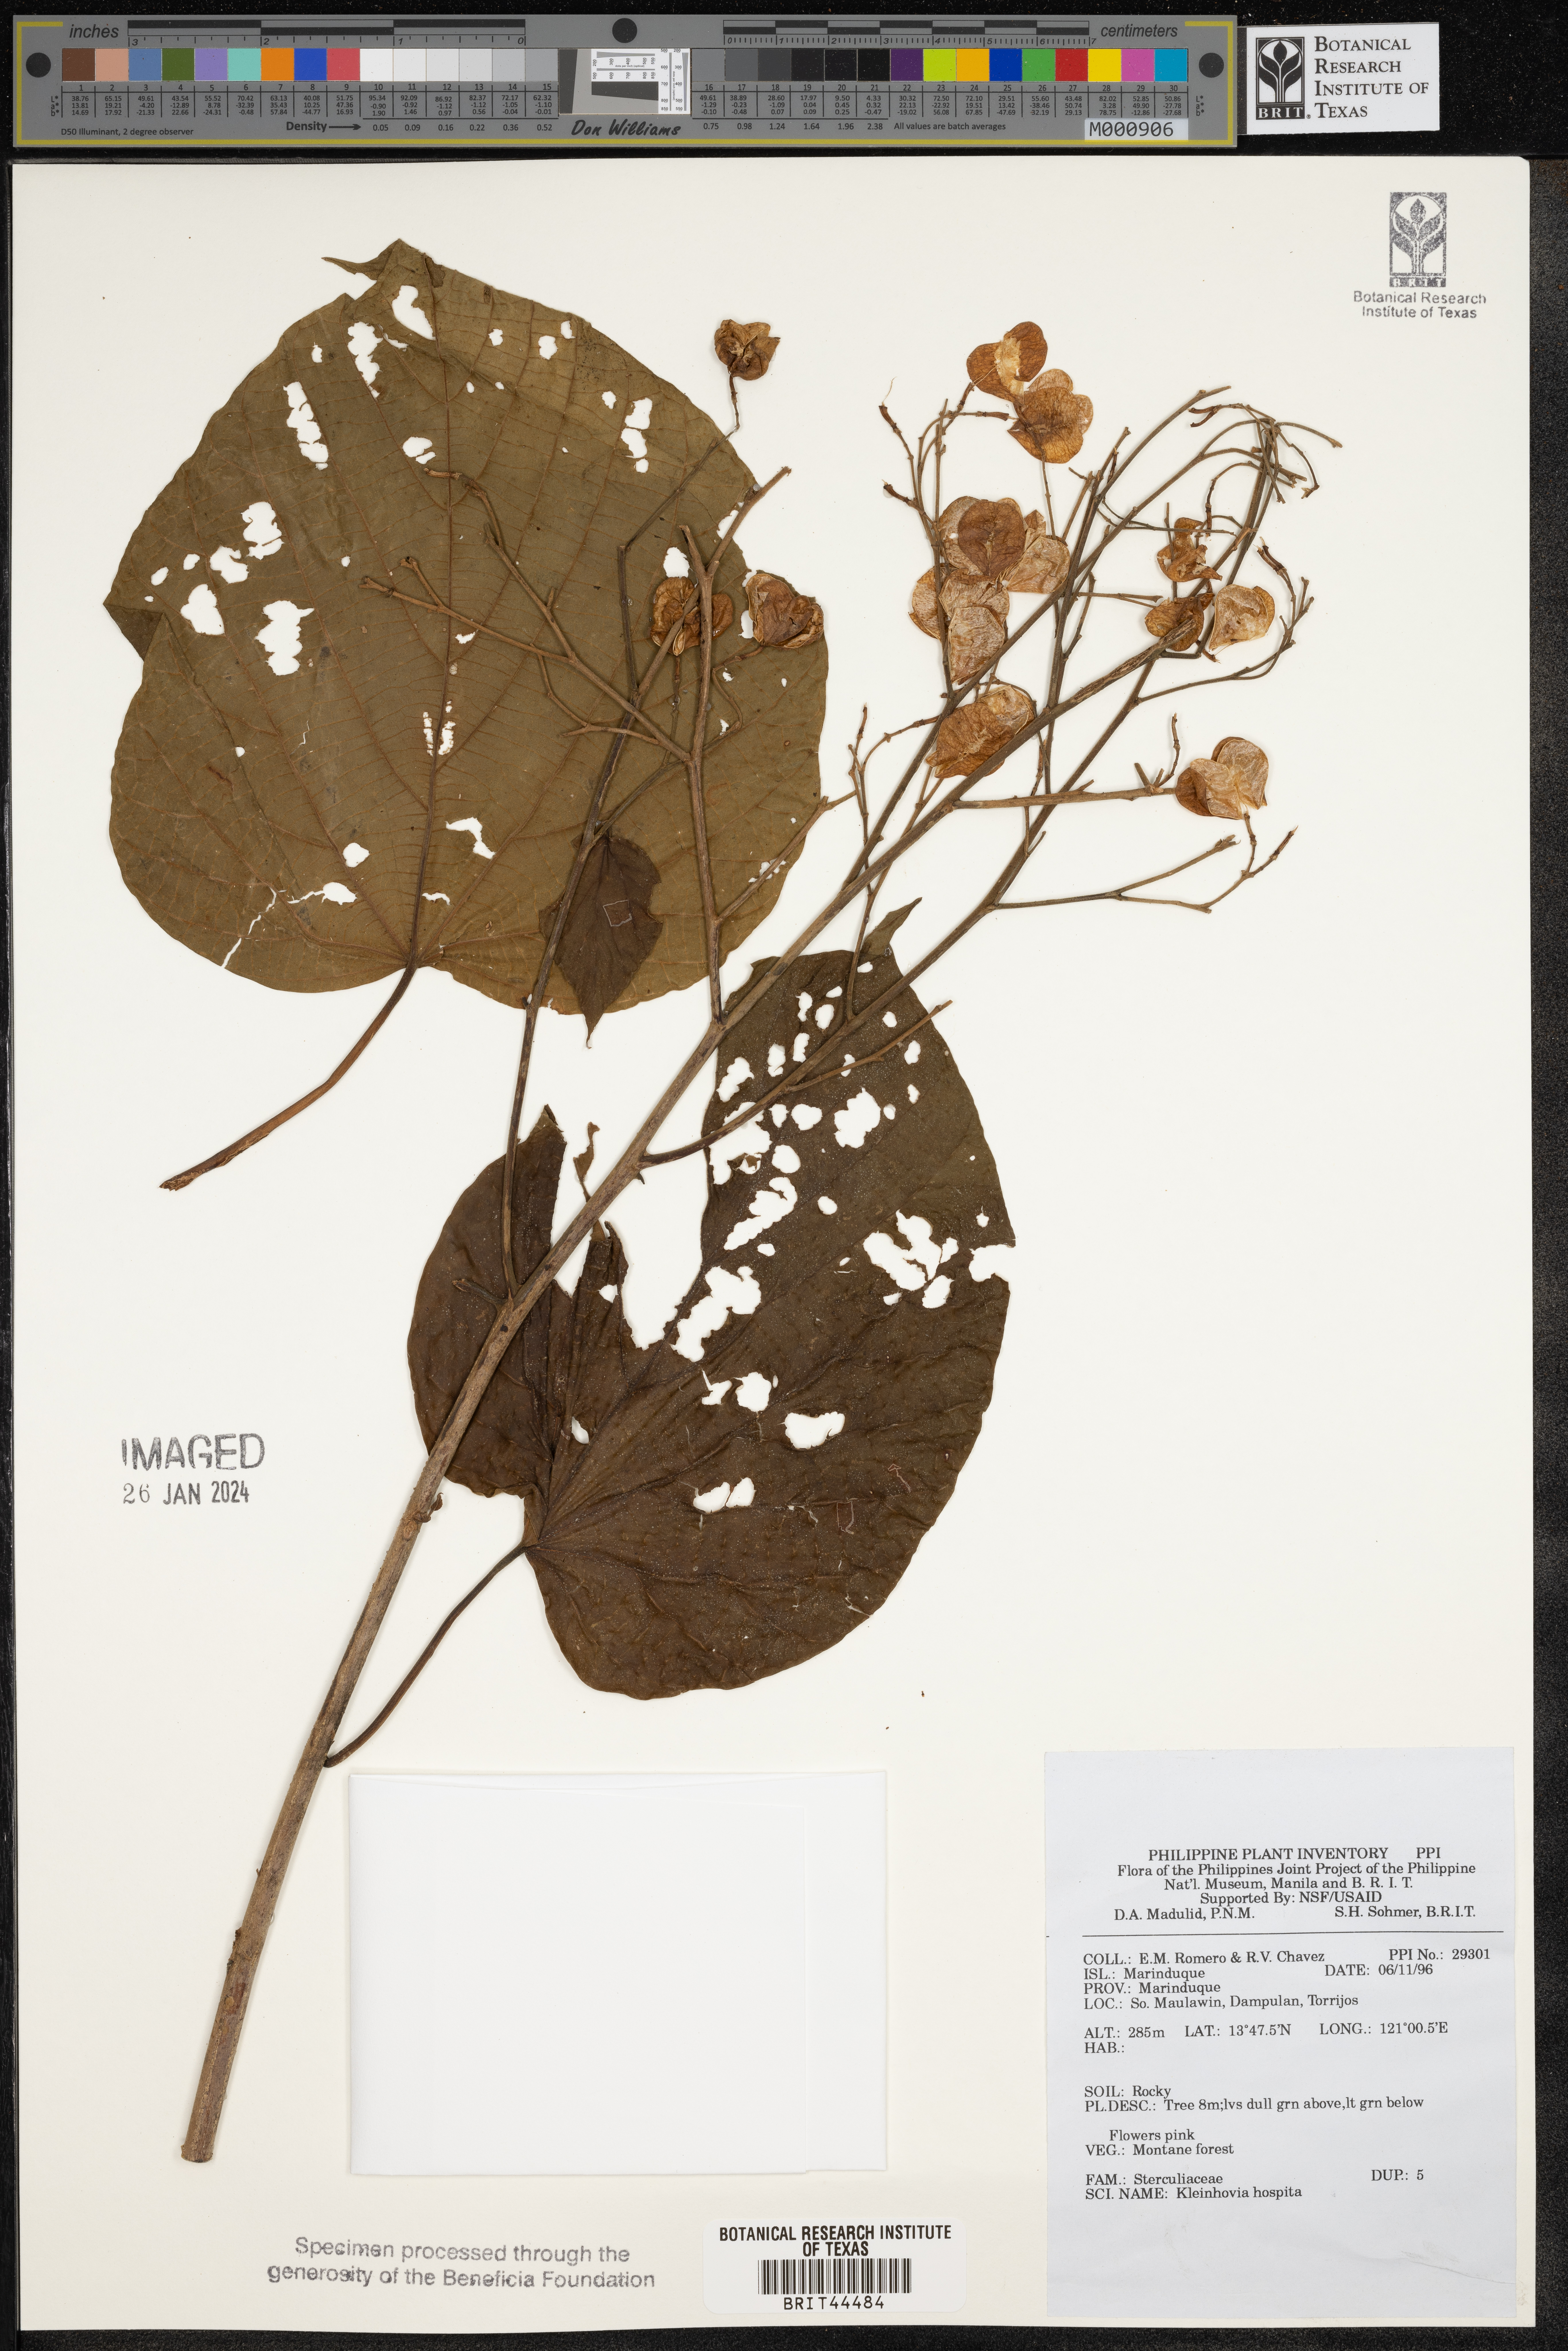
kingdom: Plantae
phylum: Tracheophyta
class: Magnoliopsida
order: Malvales
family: Malvaceae
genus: Kleinhovia
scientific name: Kleinhovia hospita
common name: Guest-tree
